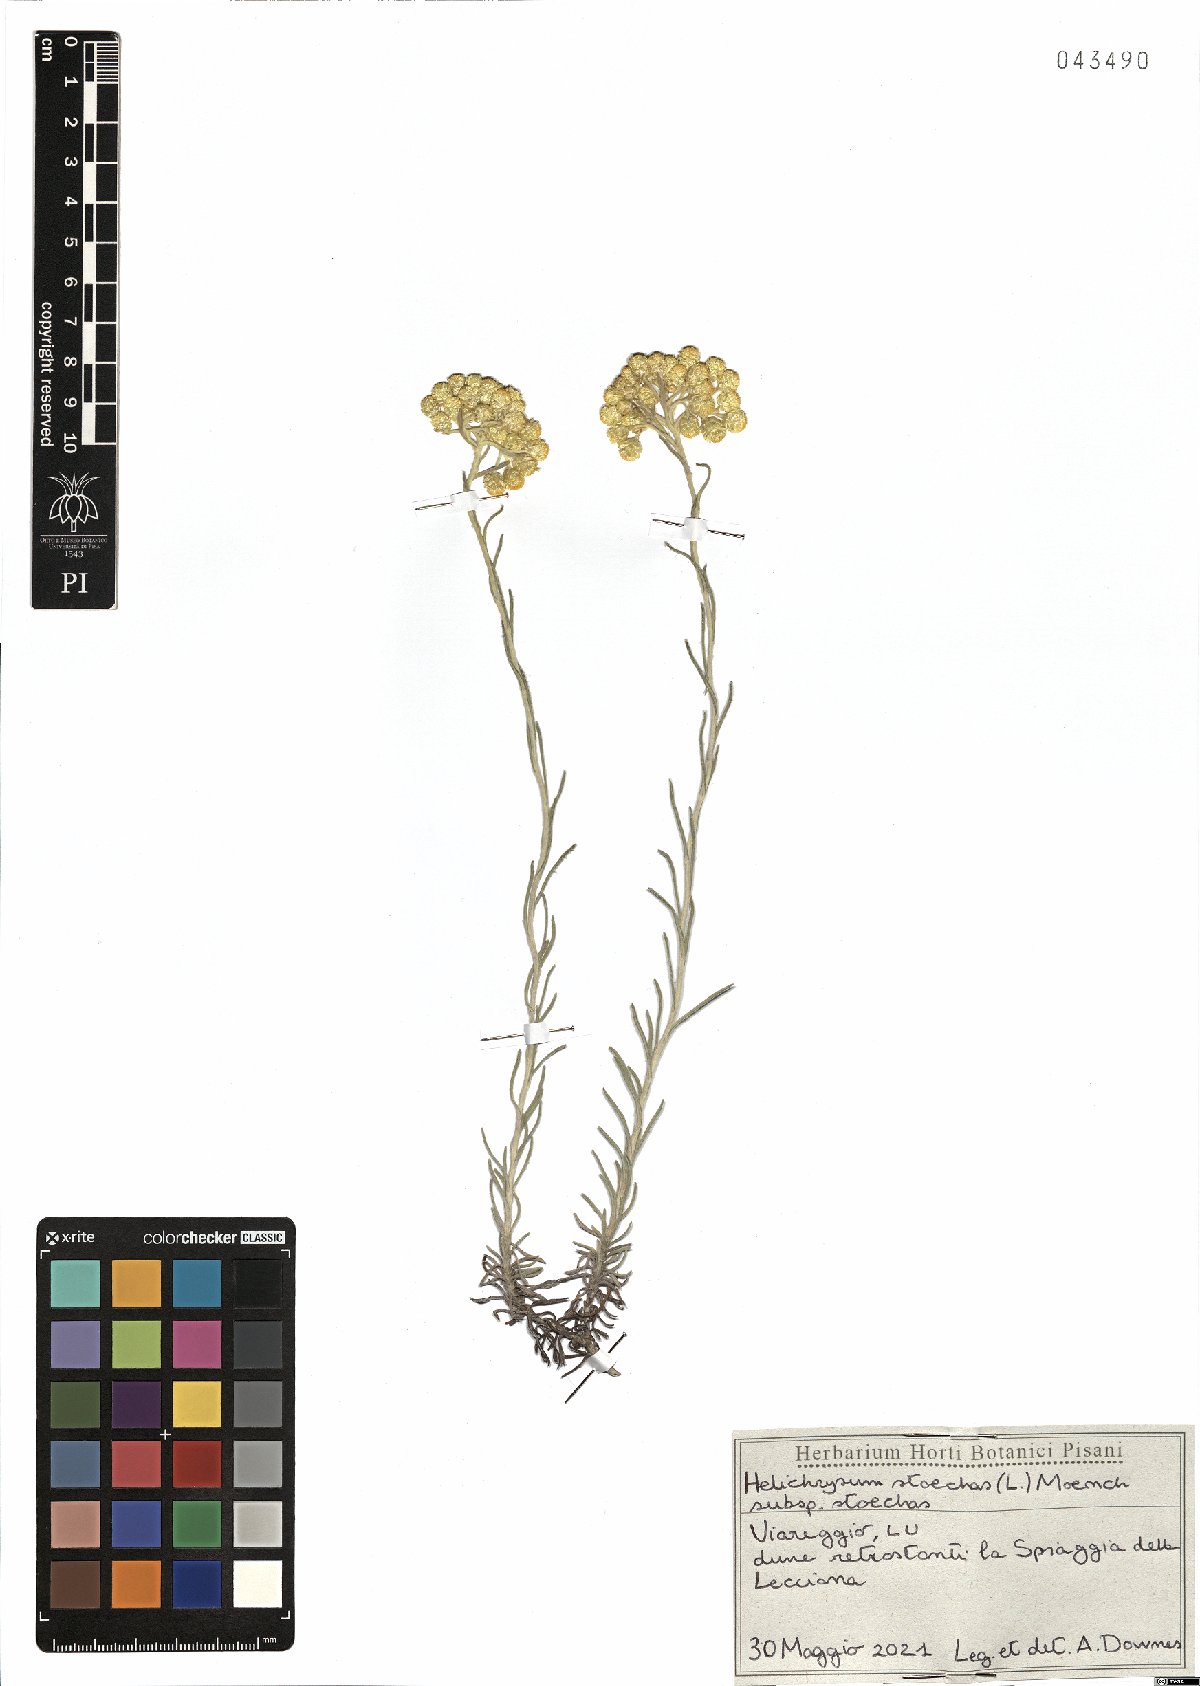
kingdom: Plantae
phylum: Tracheophyta
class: Magnoliopsida
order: Asterales
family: Asteraceae
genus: Helichrysum
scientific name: Helichrysum stoechas
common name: Goldilocks
